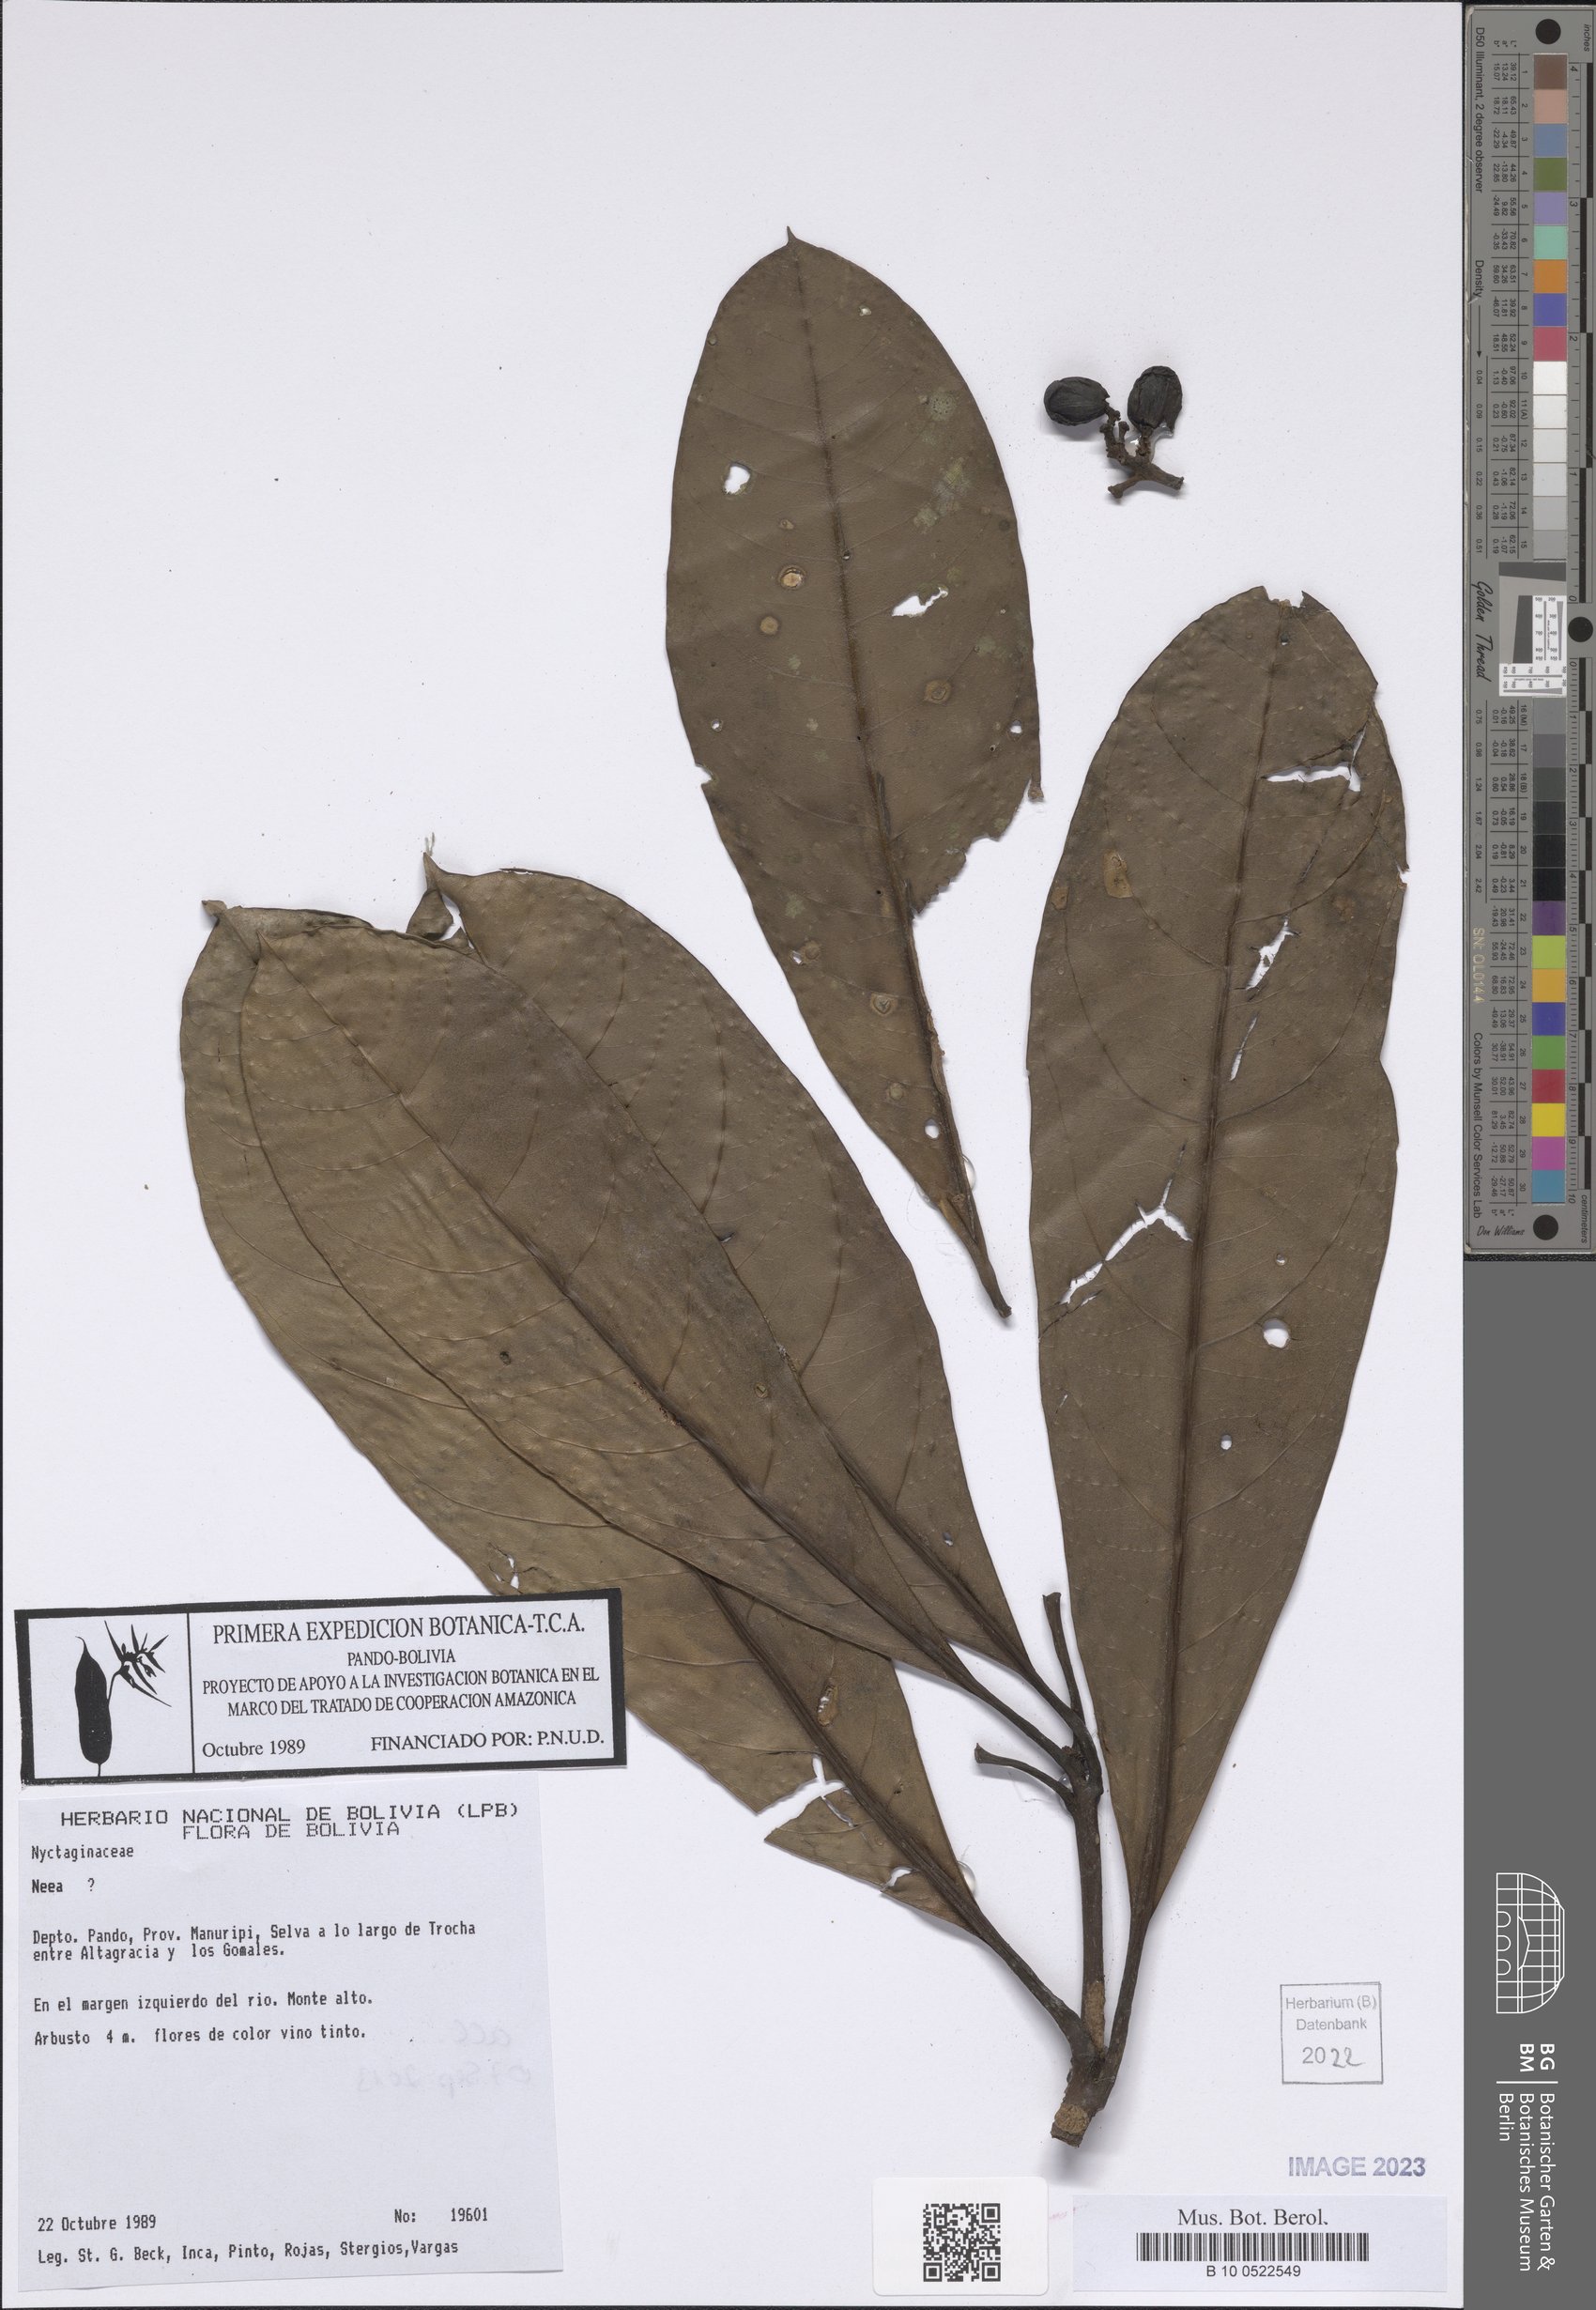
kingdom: Plantae
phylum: Tracheophyta
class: Magnoliopsida
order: Caryophyllales
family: Nyctaginaceae
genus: Neea
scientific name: Neea
